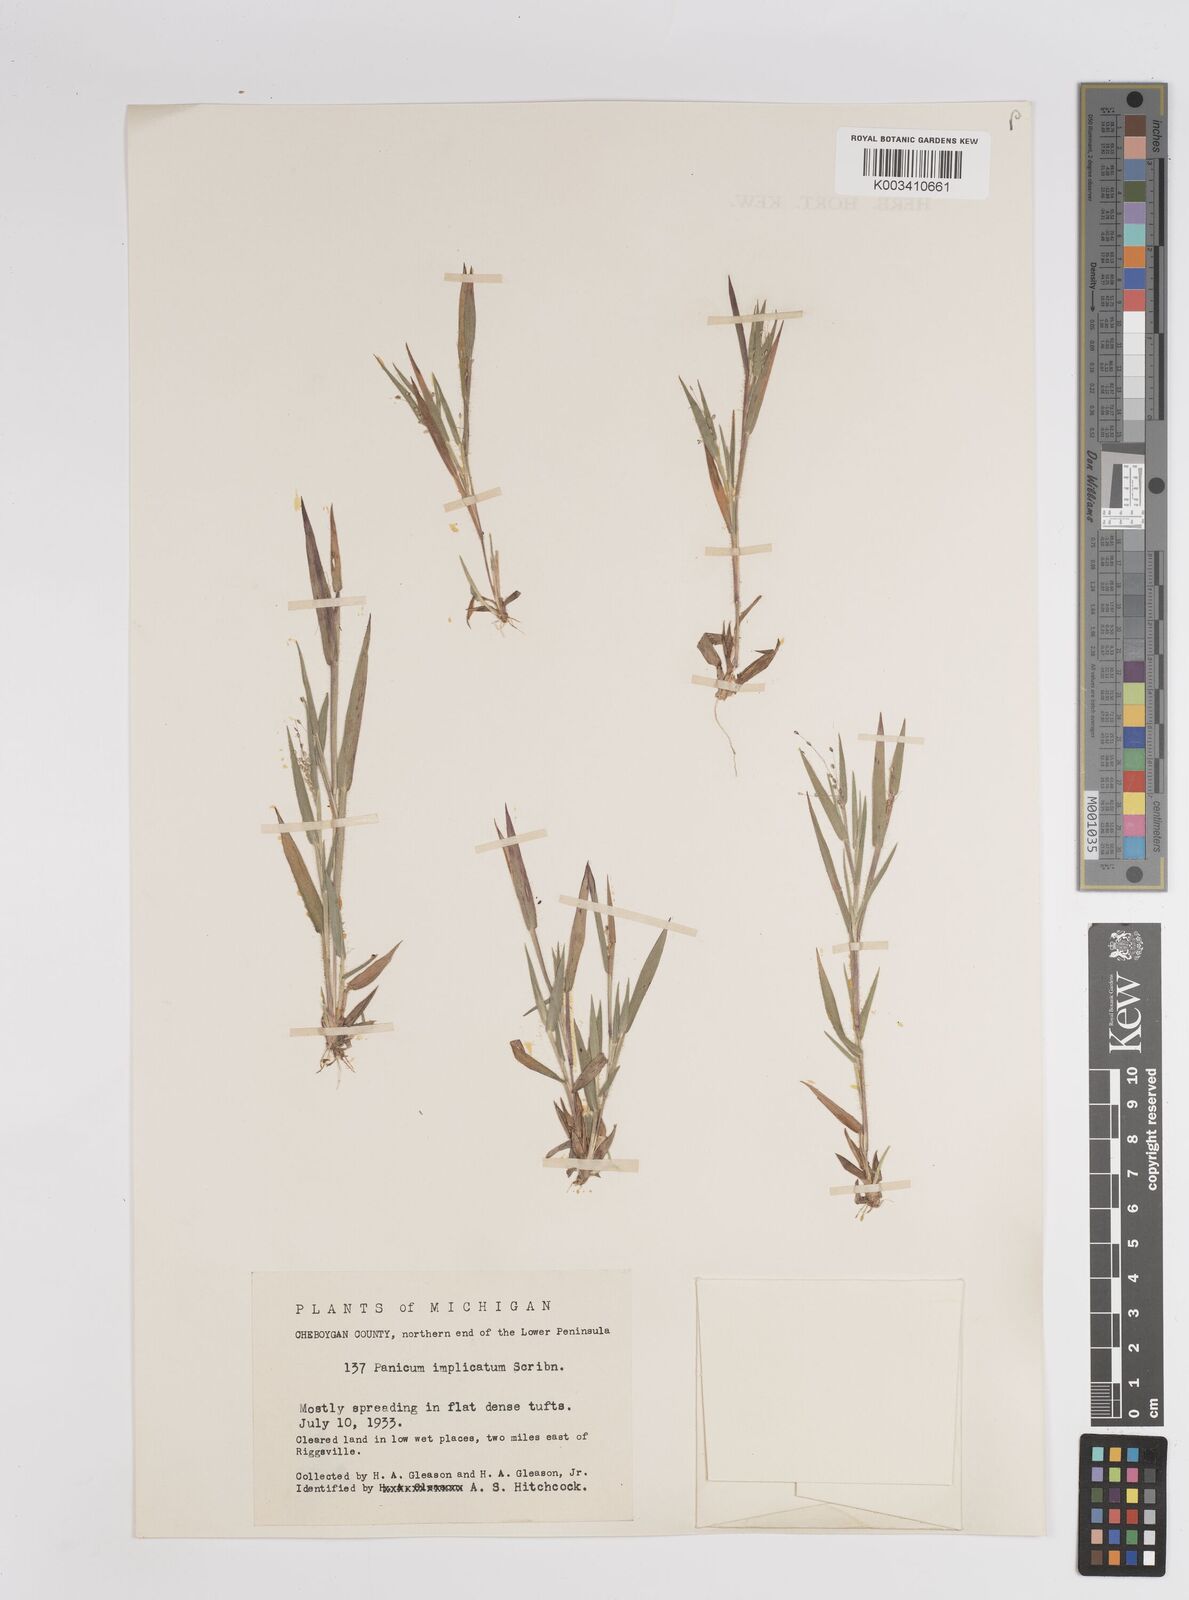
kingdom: Plantae
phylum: Tracheophyta
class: Liliopsida
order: Poales
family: Poaceae
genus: Dichanthelium
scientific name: Dichanthelium implicatum
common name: Slender-stemmed panicgrass
